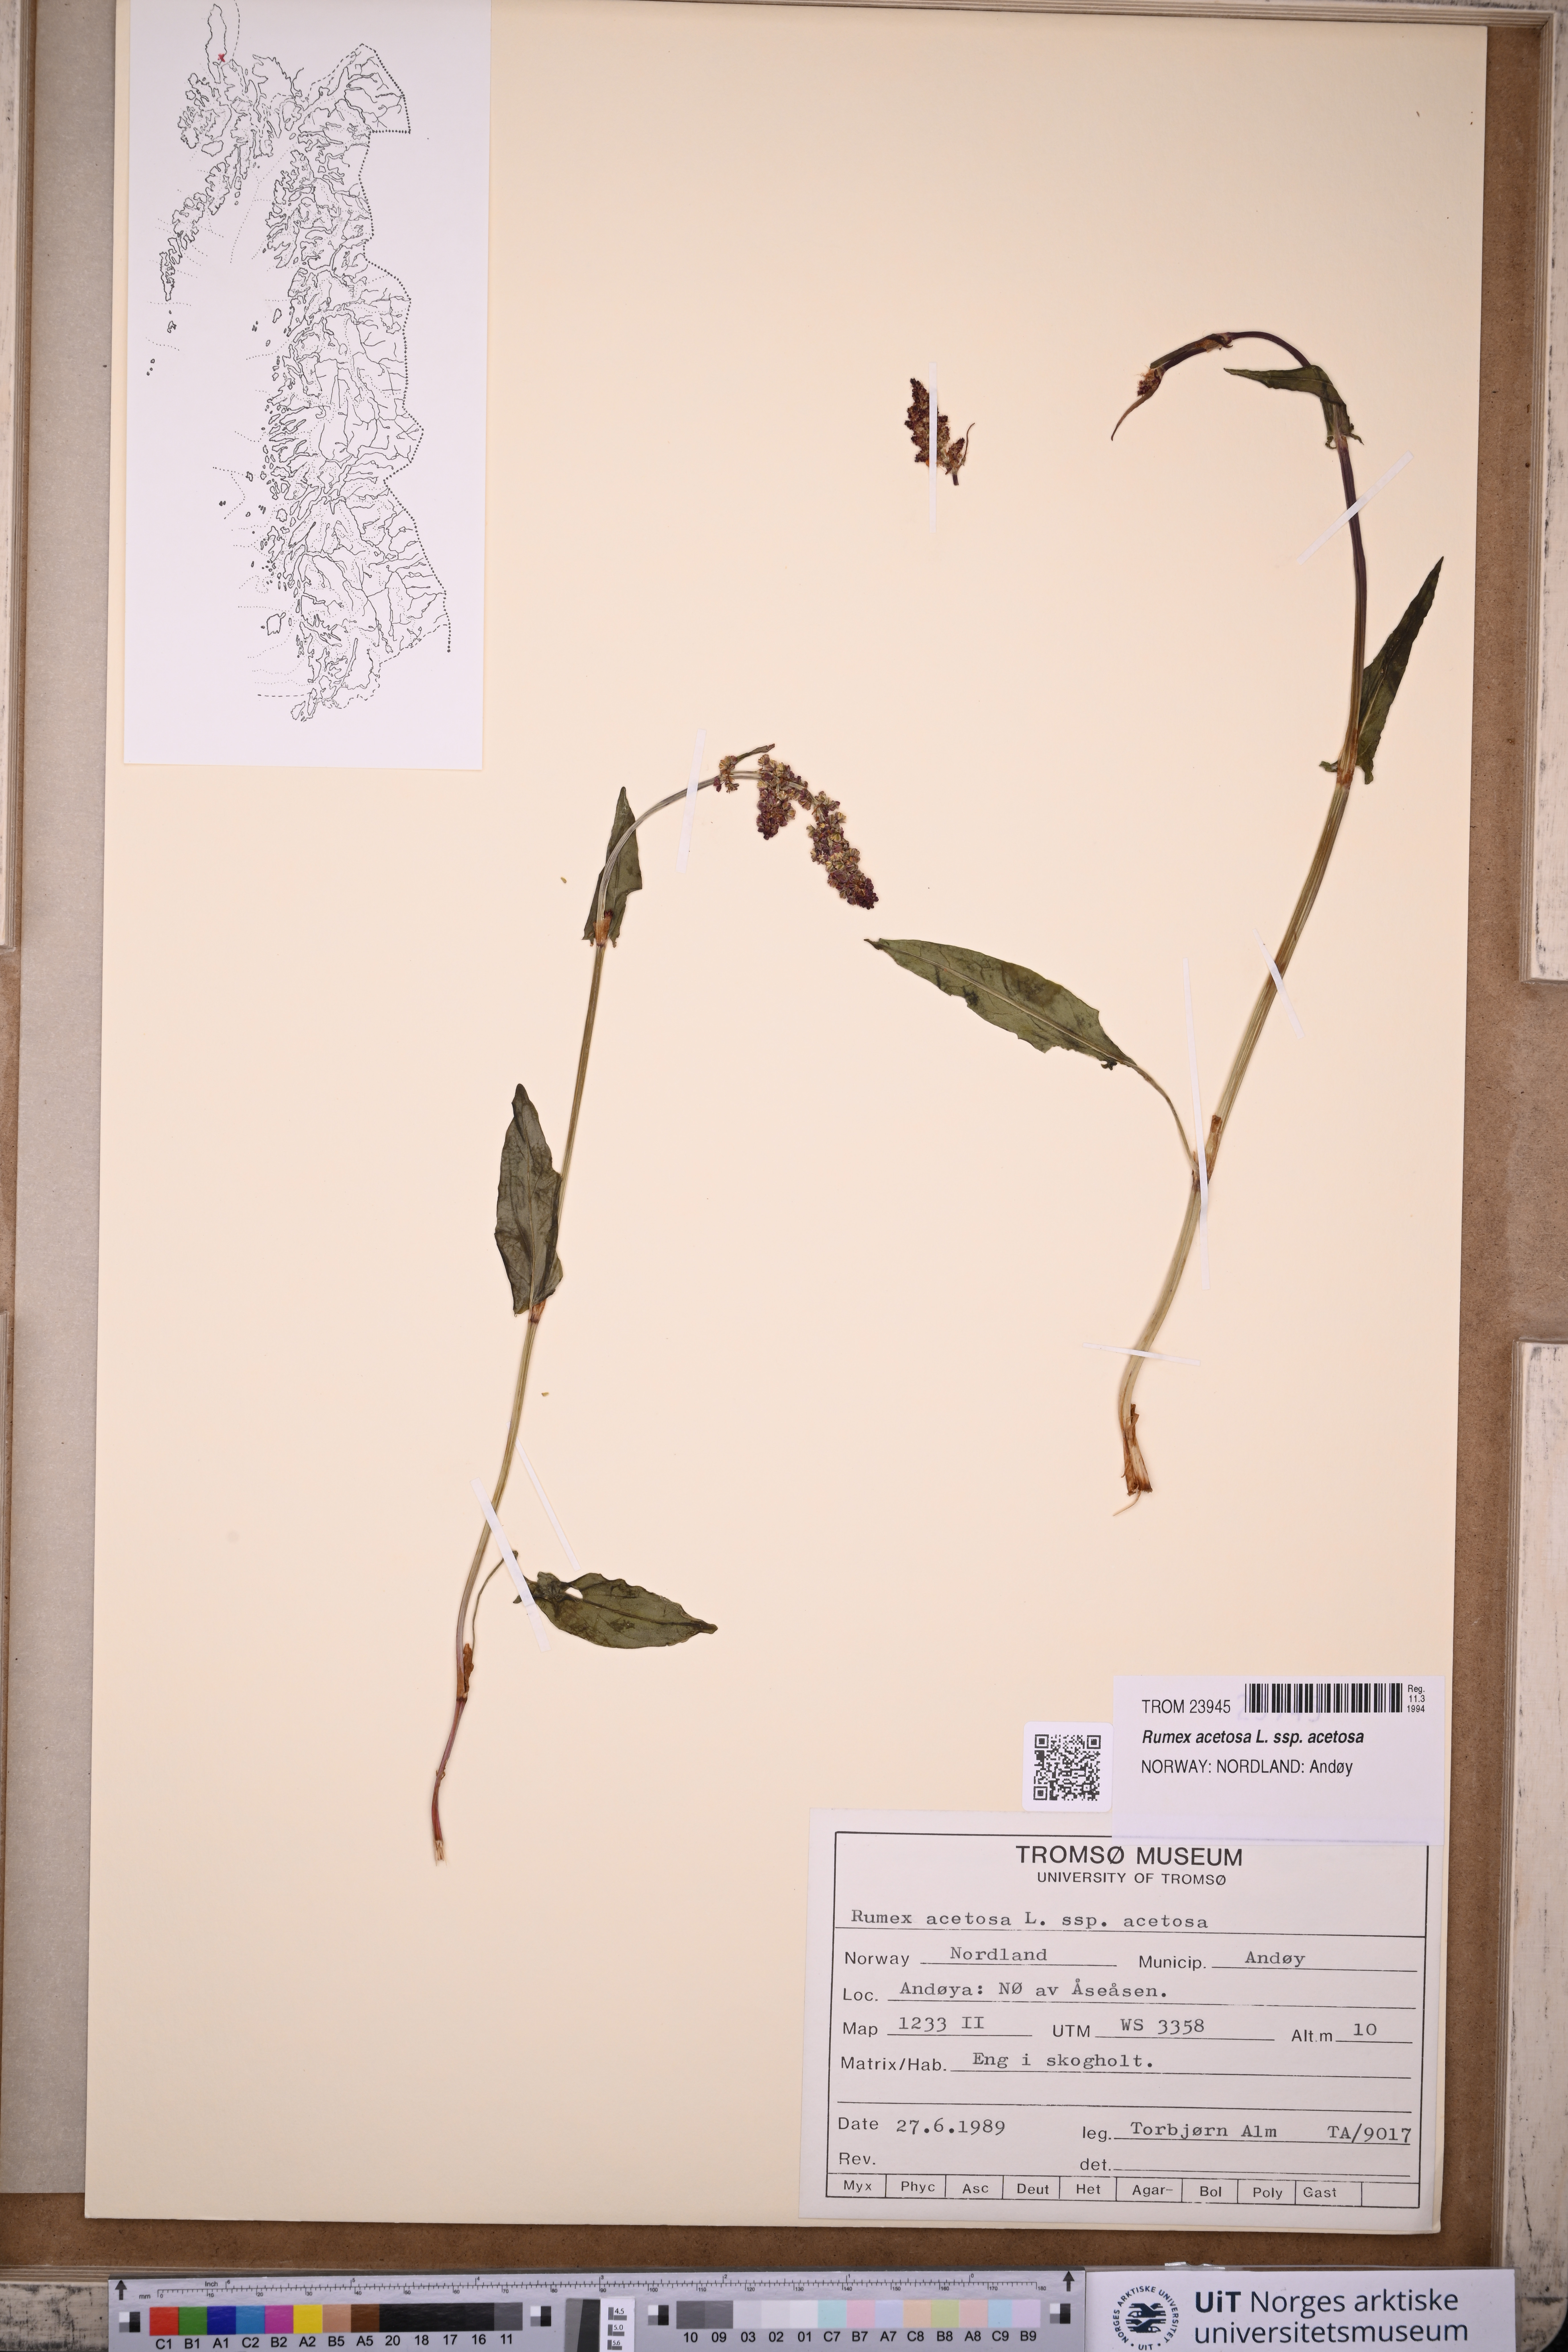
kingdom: Plantae
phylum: Tracheophyta
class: Magnoliopsida
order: Caryophyllales
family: Polygonaceae
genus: Rumex
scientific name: Rumex acetosa
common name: Garden sorrel
